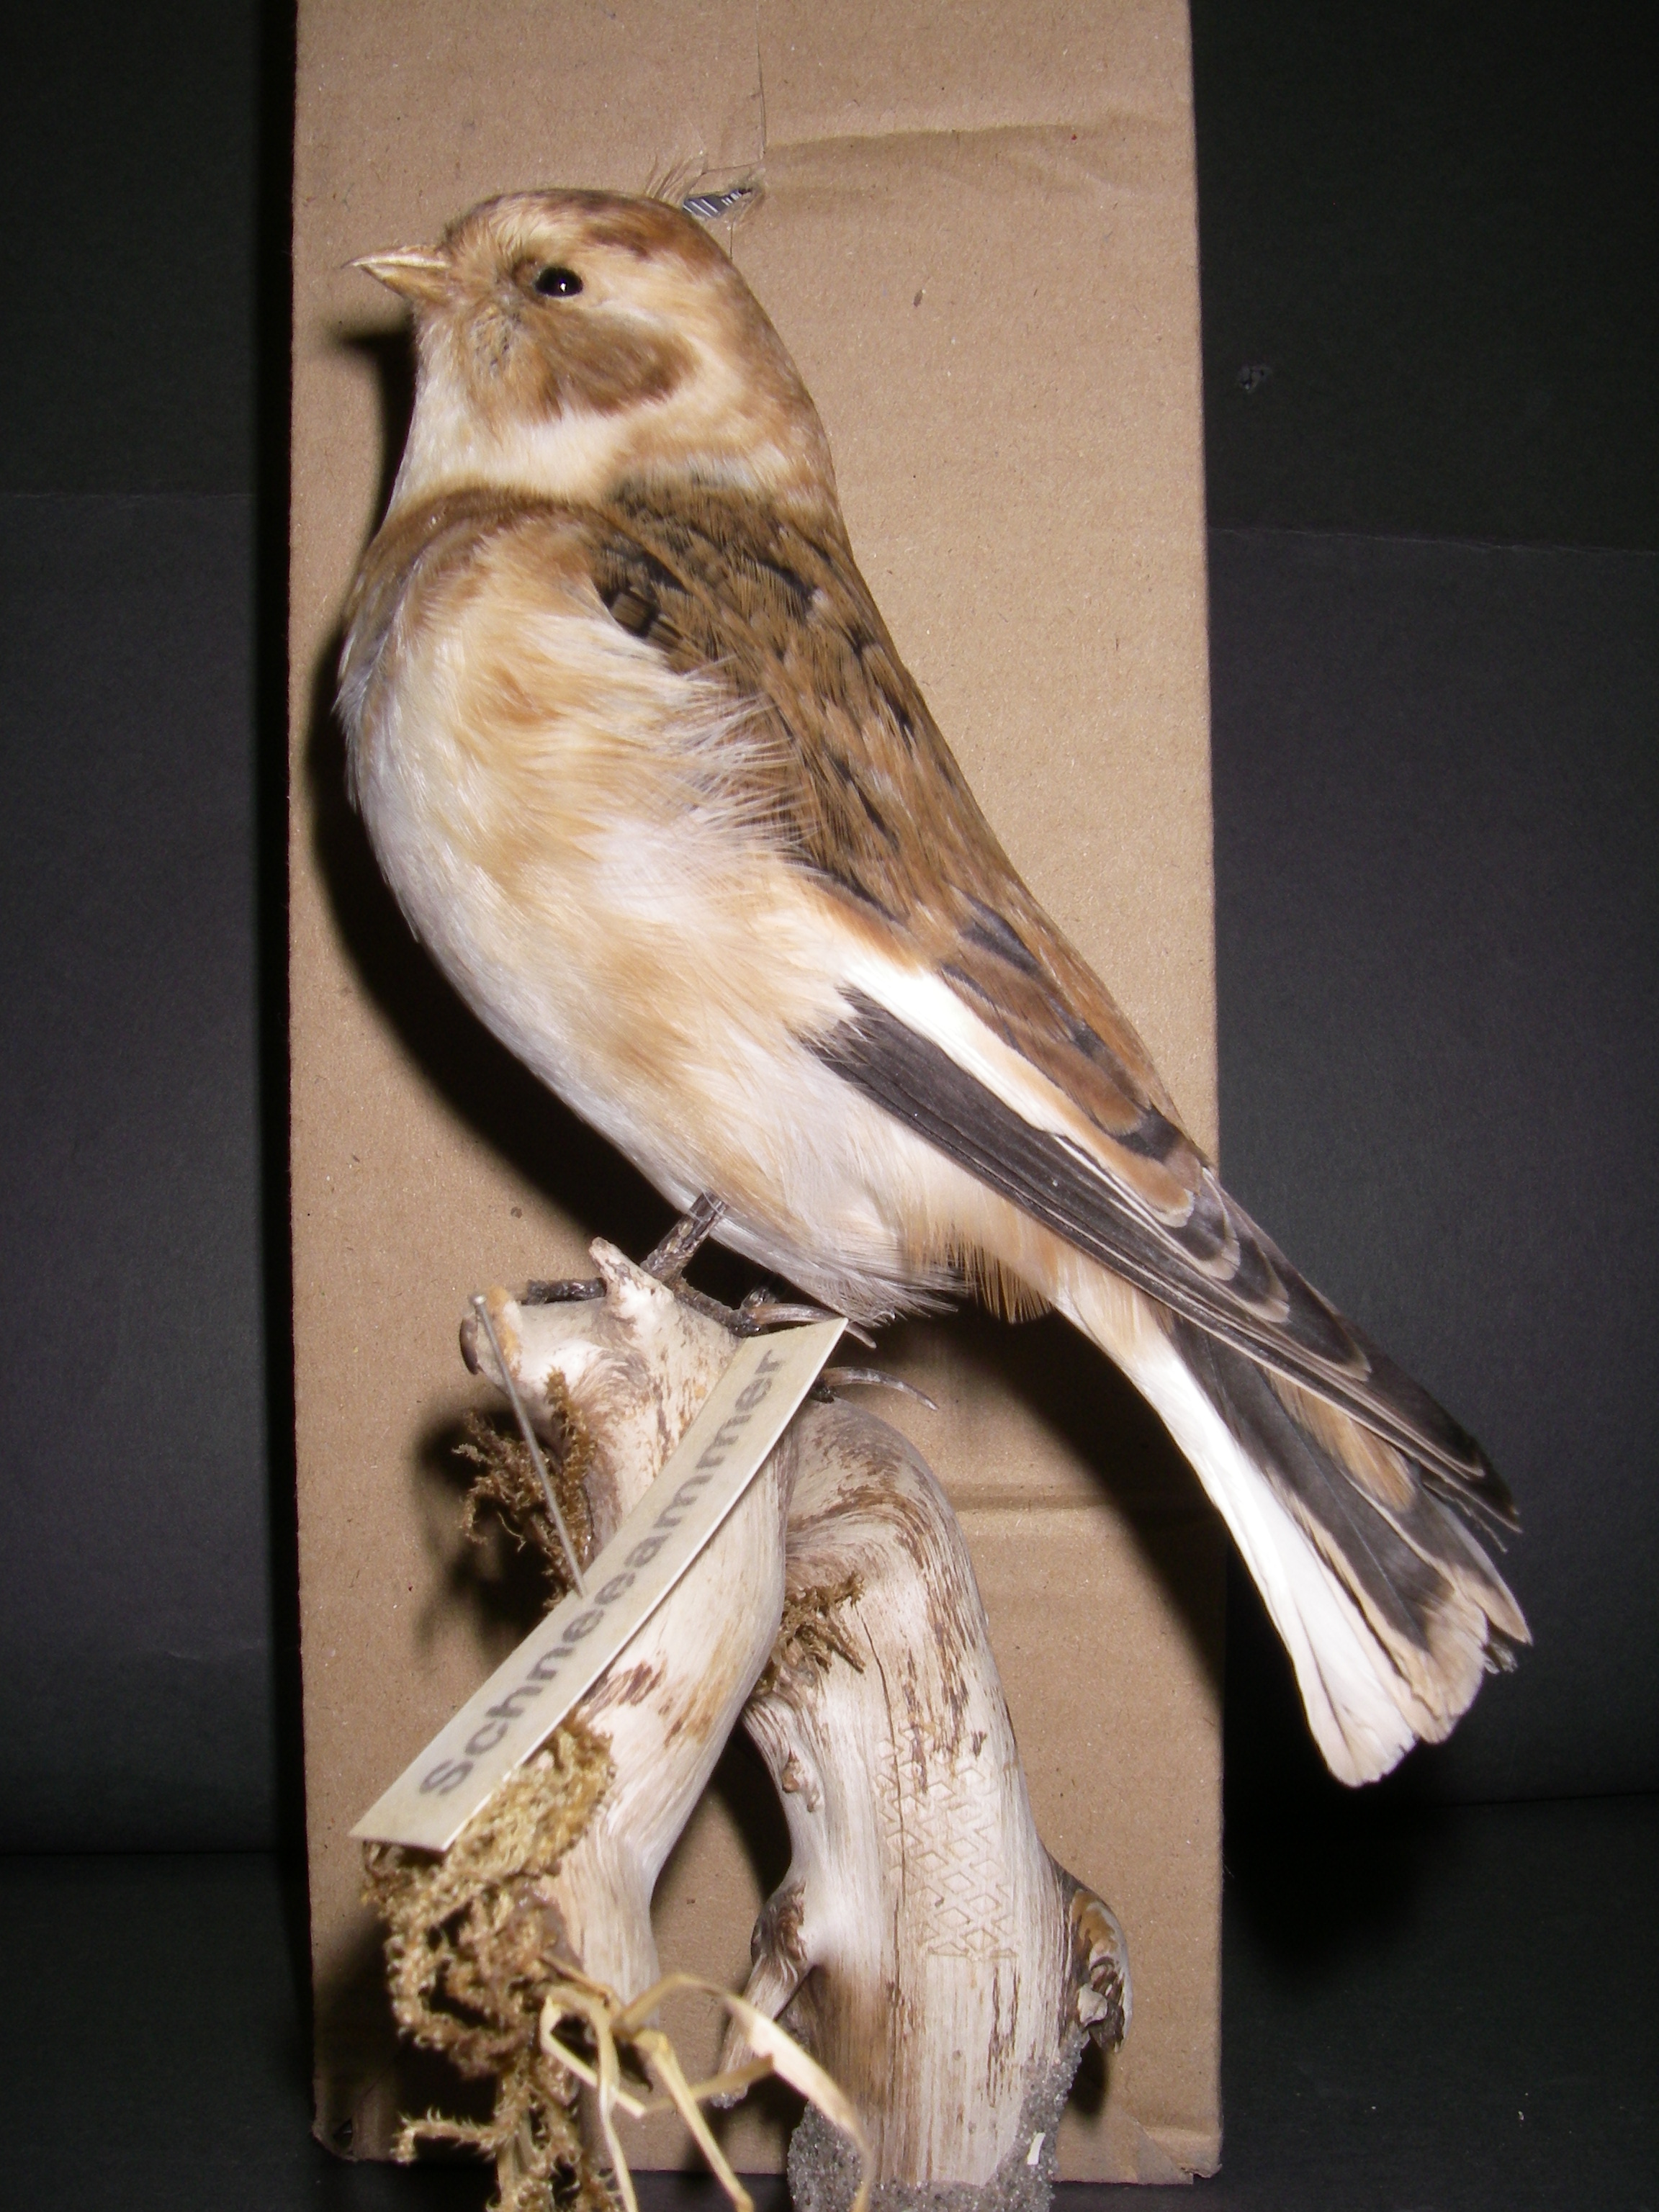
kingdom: Animalia
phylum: Chordata
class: Aves
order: Passeriformes
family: Calcariidae
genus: Plectrophenax
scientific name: Plectrophenax nivalis
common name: Snow bunting
